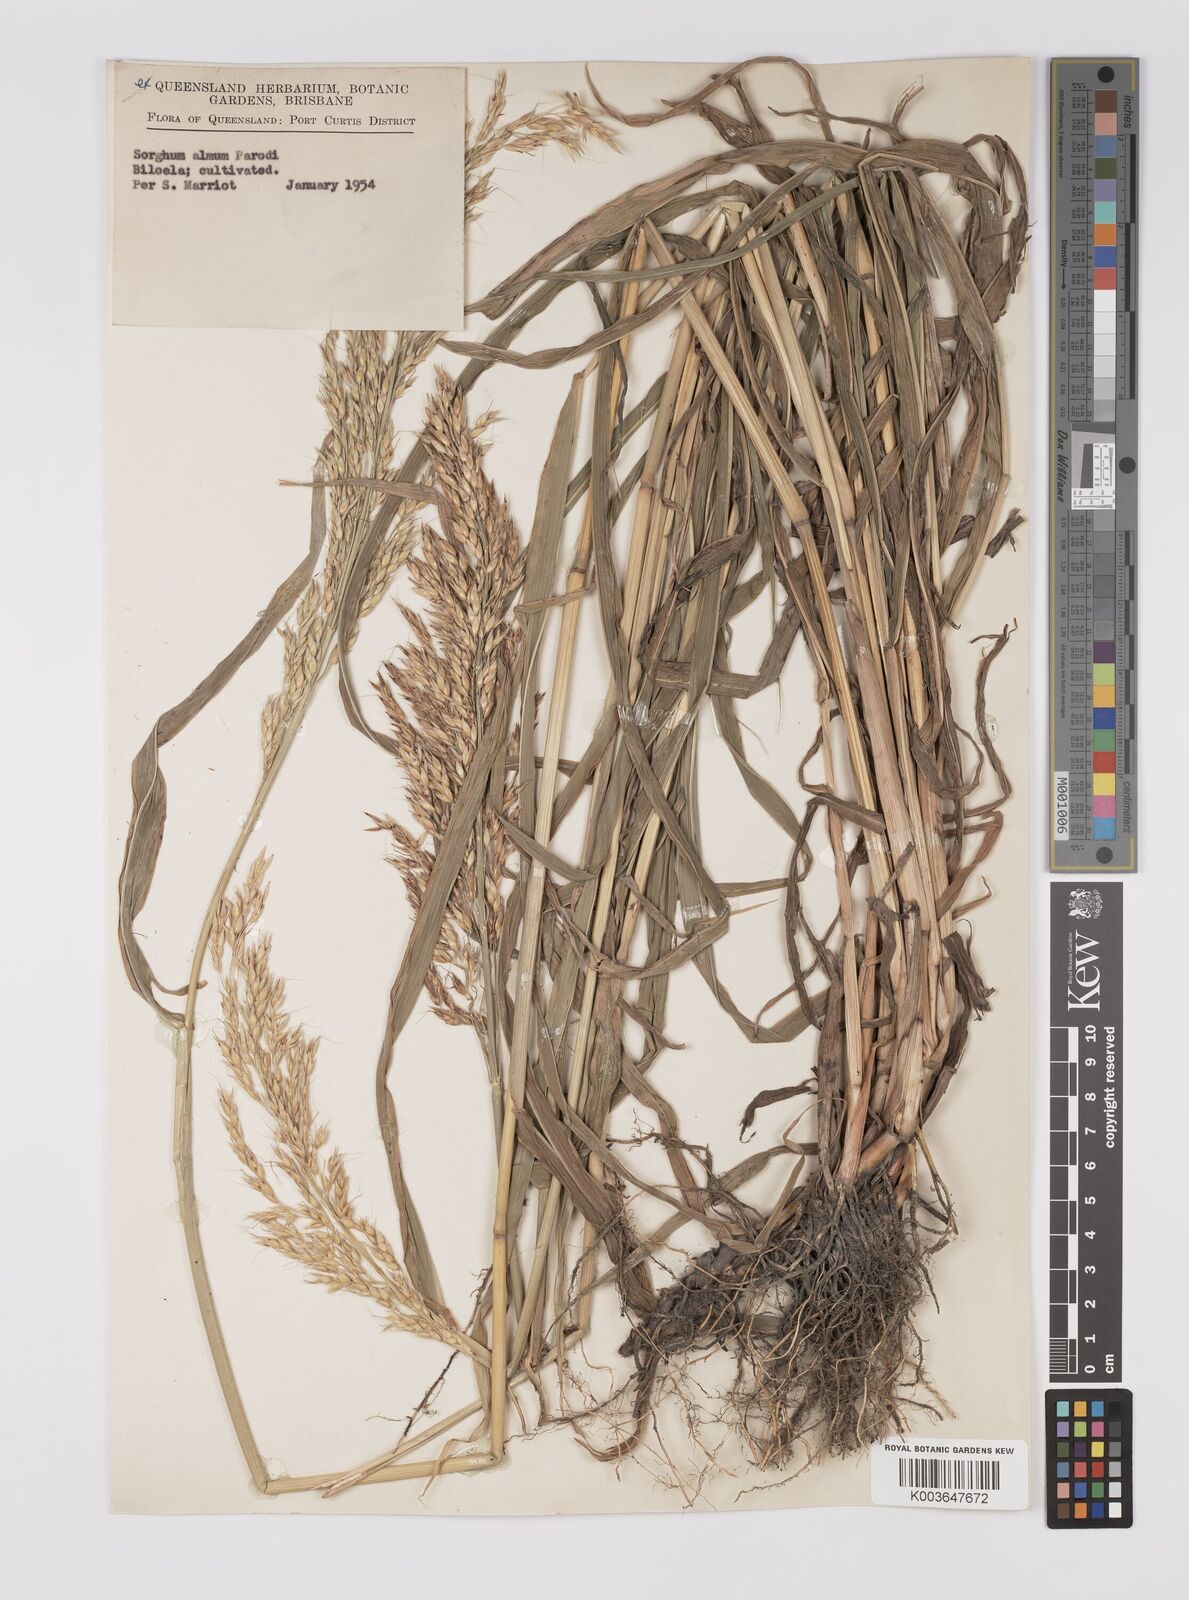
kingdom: Plantae
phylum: Tracheophyta
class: Liliopsida
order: Poales
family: Poaceae
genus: Sorghum
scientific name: Sorghum almum
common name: Columbus grass
